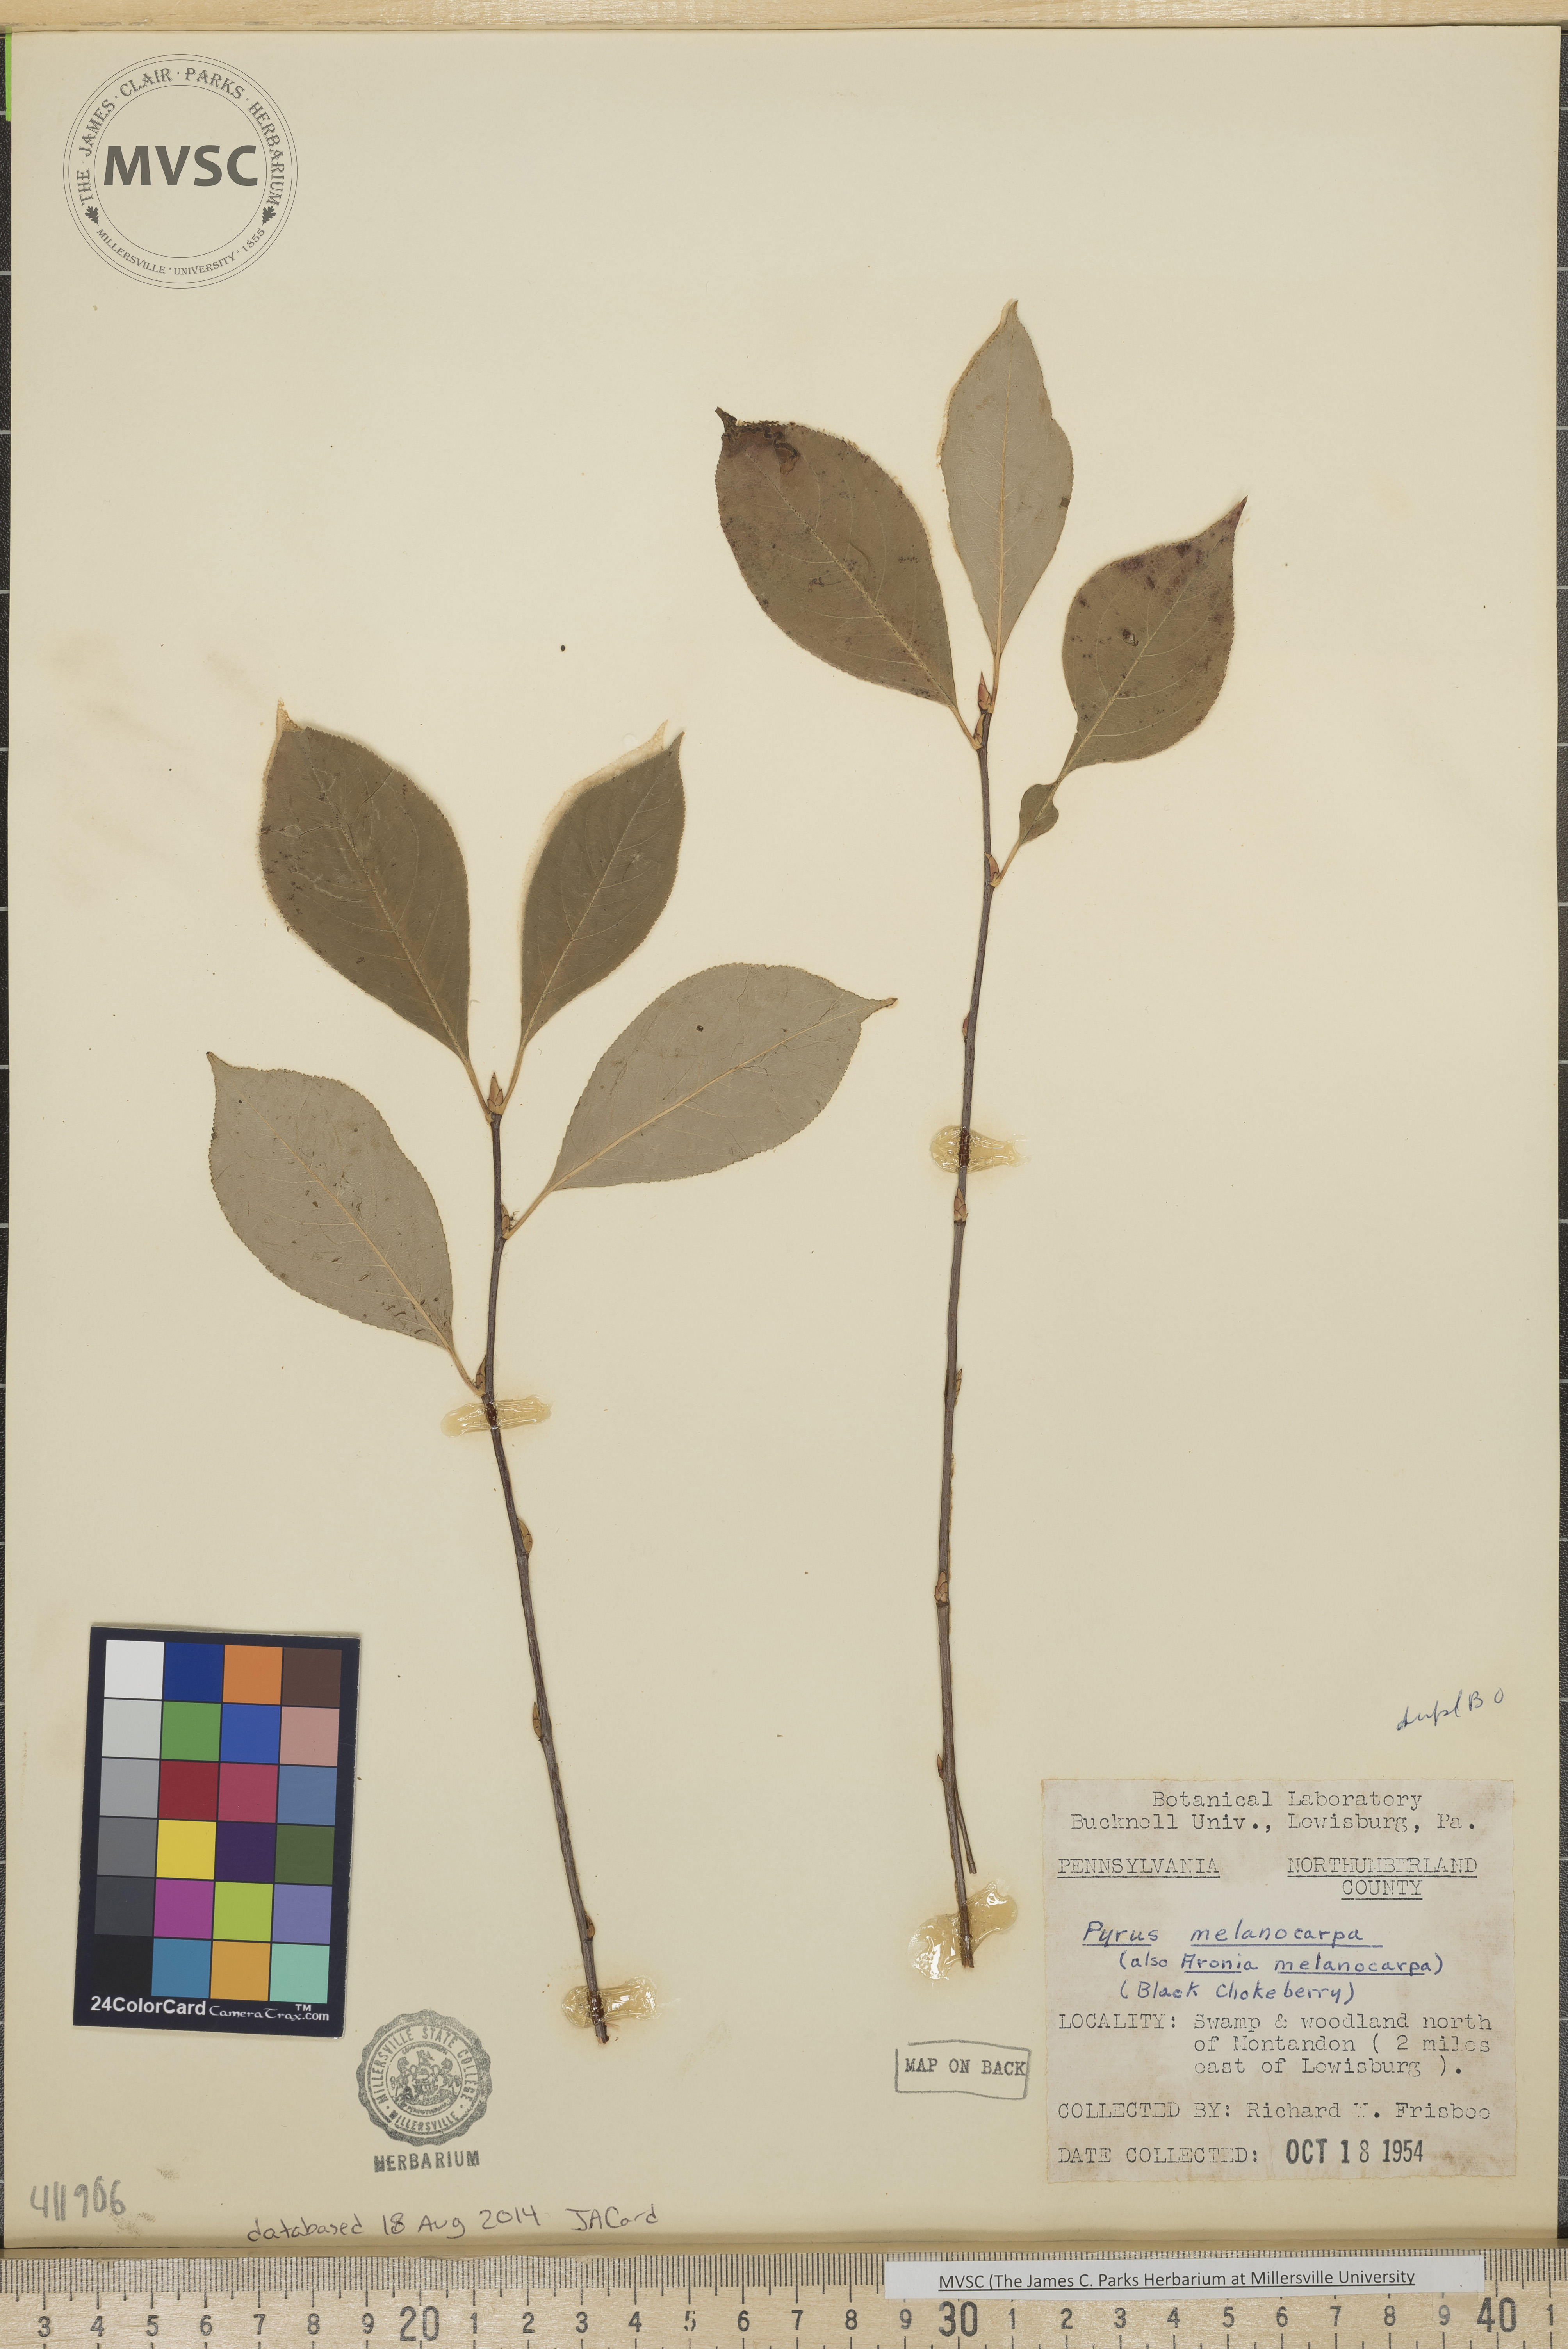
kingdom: Plantae
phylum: Tracheophyta
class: Magnoliopsida
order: Rosales
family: Rosaceae
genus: Aronia
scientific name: Aronia melanocarpa
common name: Black Chokeberry
